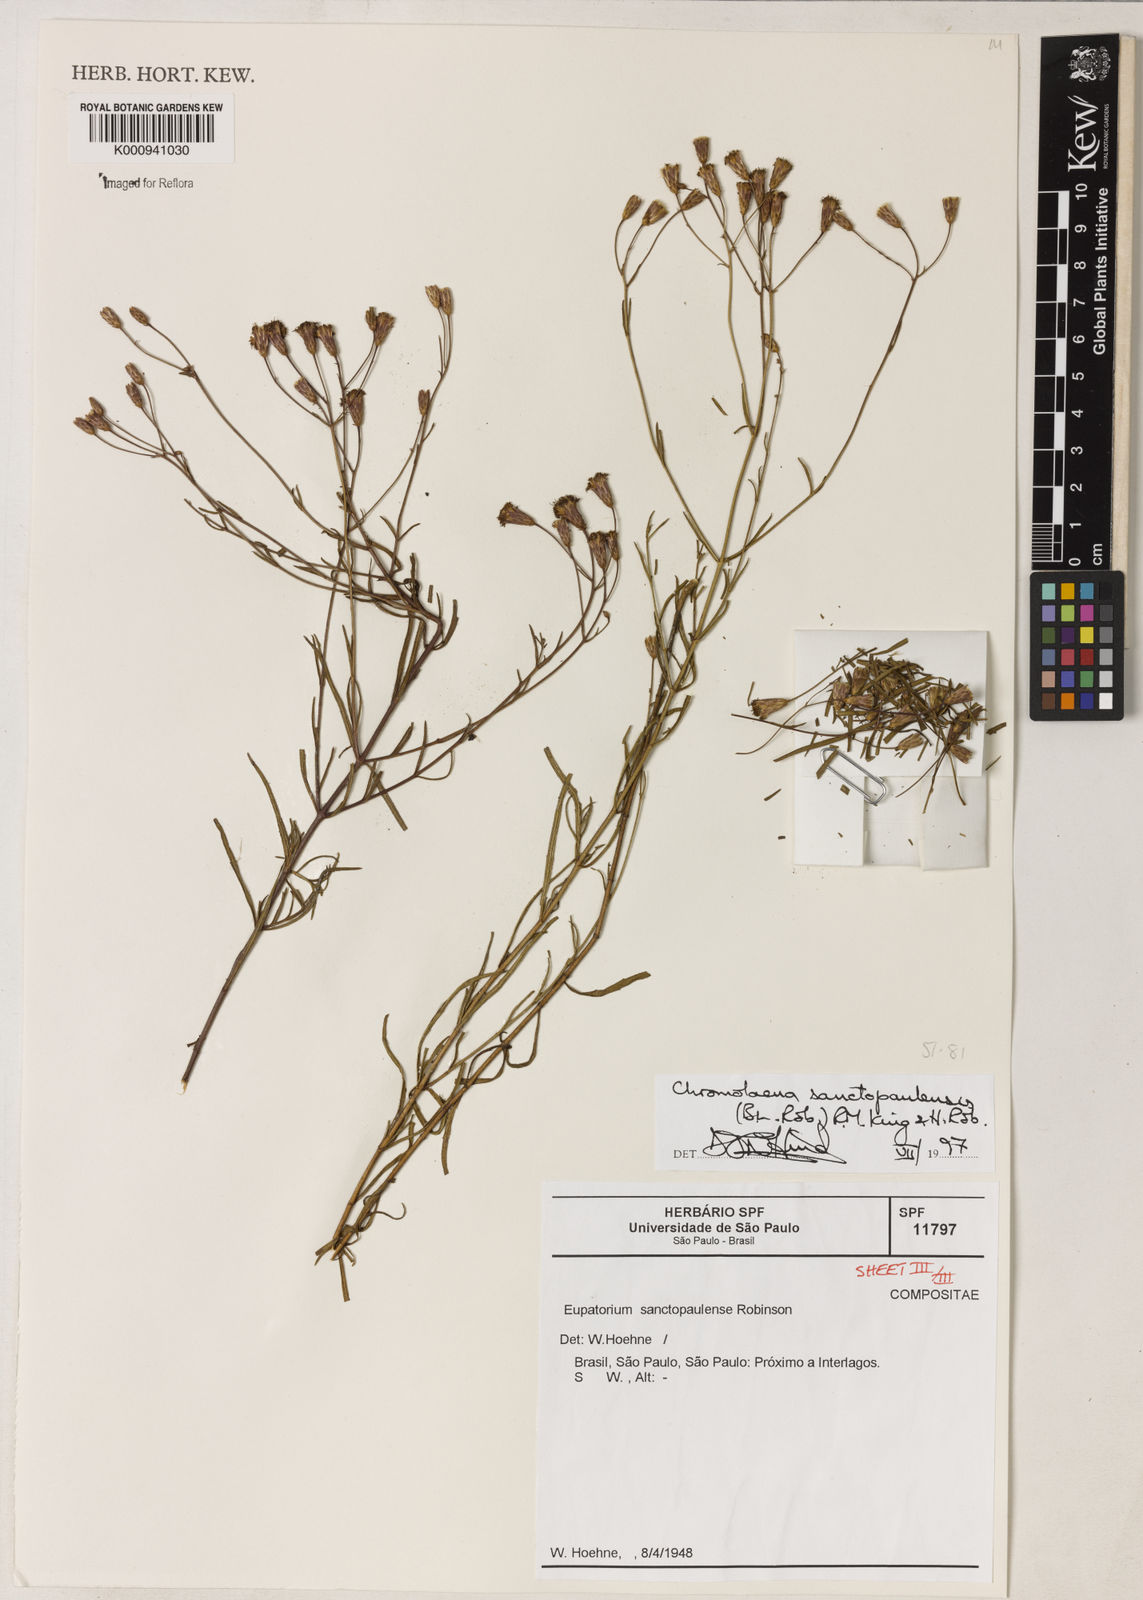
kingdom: Plantae
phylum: Tracheophyta
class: Magnoliopsida
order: Asterales
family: Asteraceae
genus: Chromolaena
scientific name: Chromolaena
